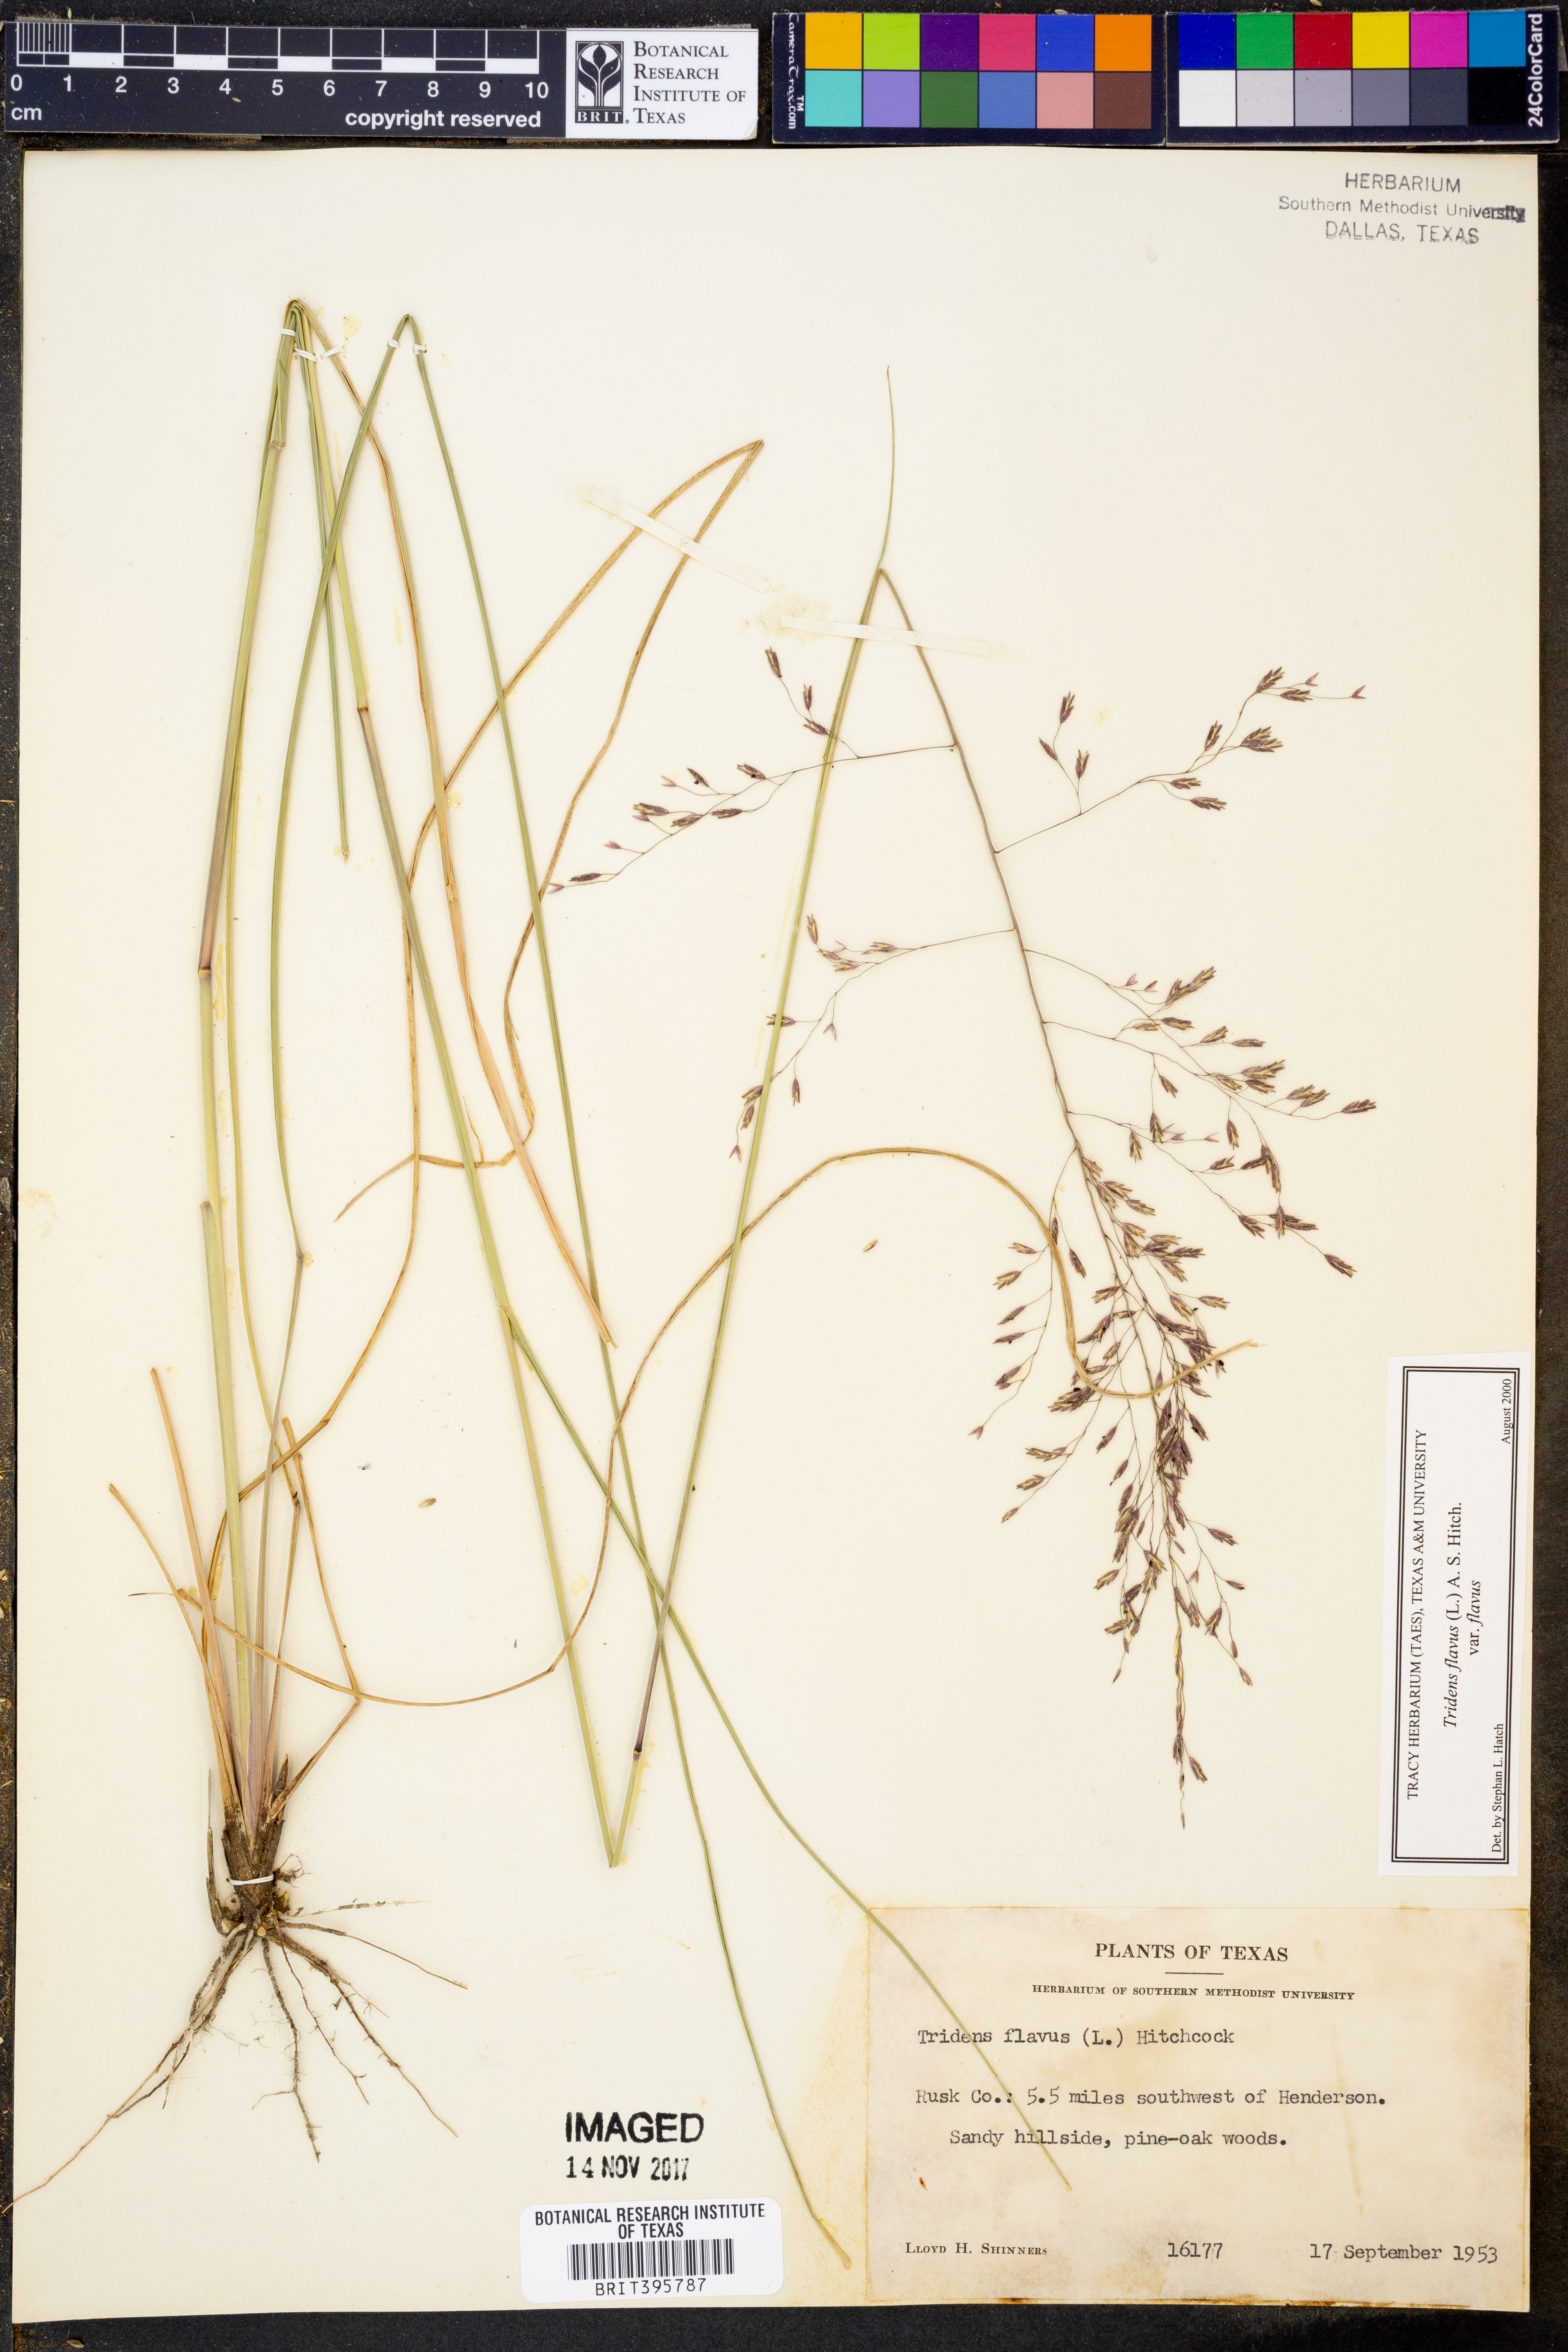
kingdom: Plantae
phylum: Tracheophyta
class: Liliopsida
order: Poales
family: Poaceae
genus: Tridens
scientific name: Tridens flavus
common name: Purpletop
